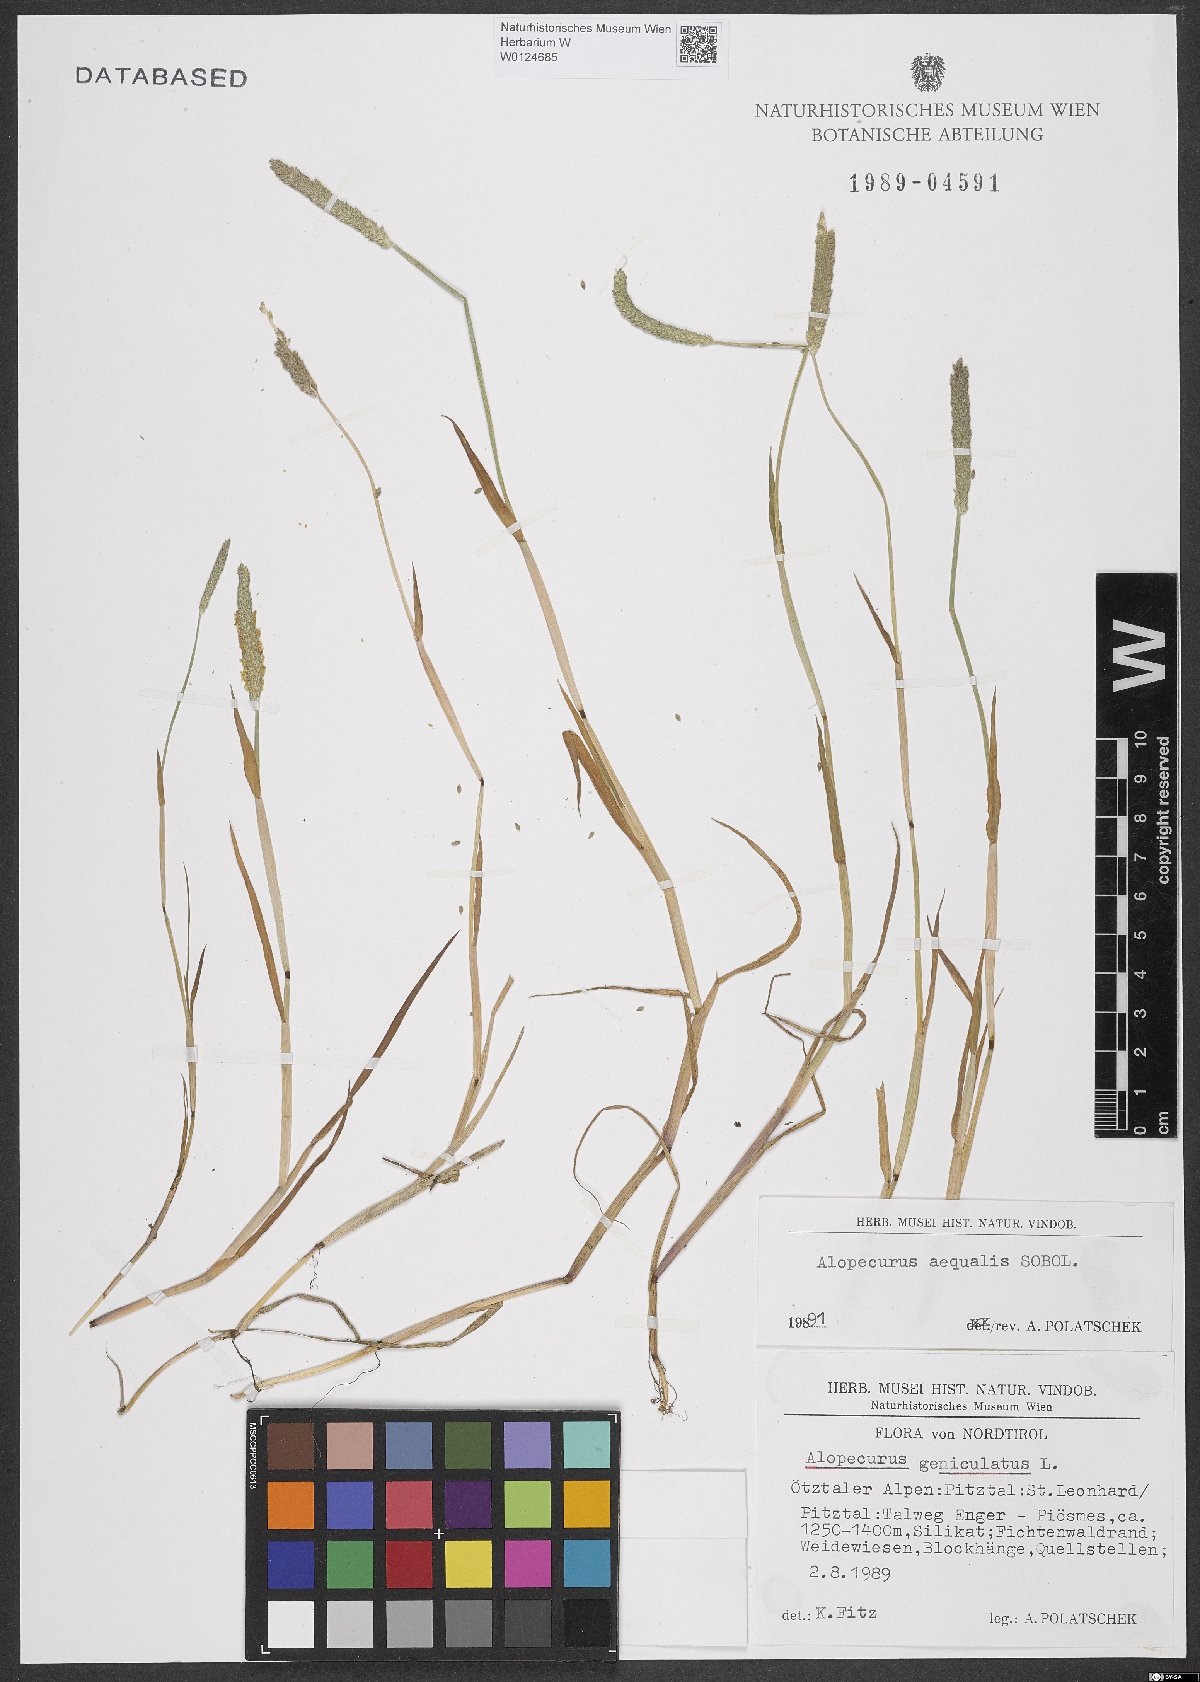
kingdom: Plantae
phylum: Tracheophyta
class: Liliopsida
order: Poales
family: Poaceae
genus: Alopecurus
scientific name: Alopecurus aequalis
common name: Orange foxtail
